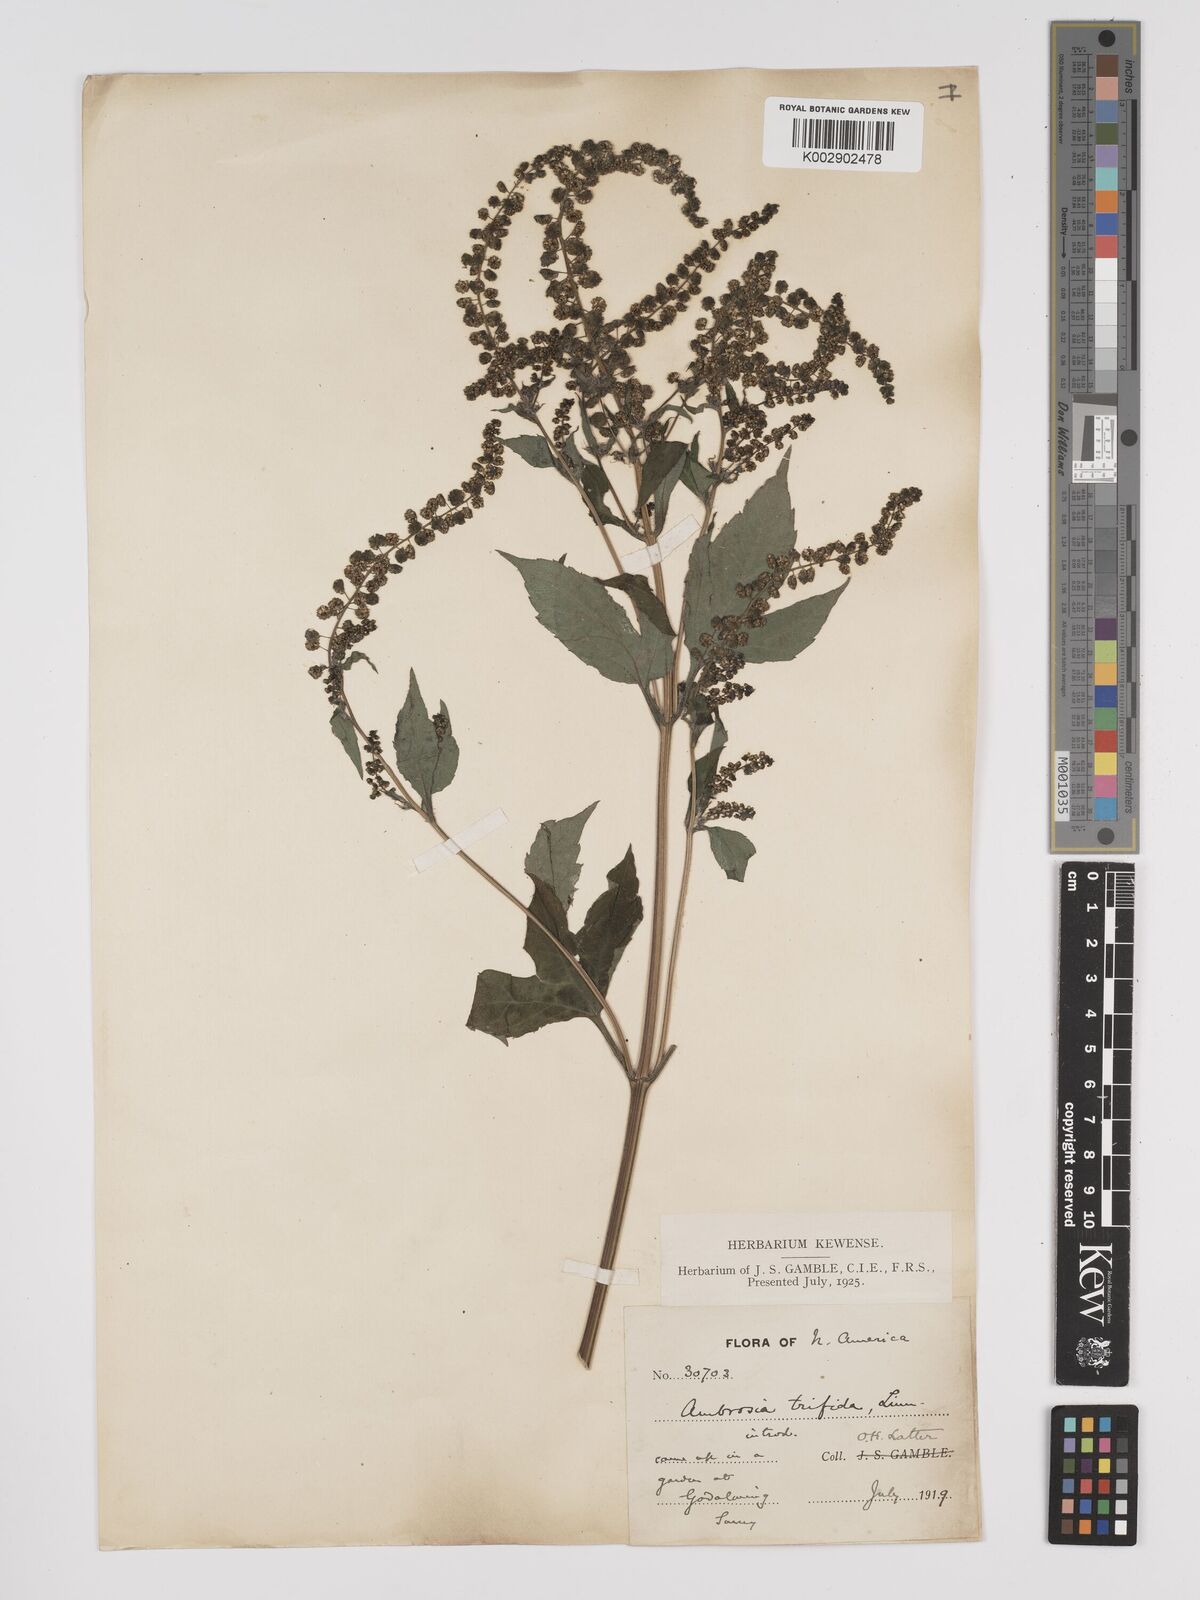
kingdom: Plantae
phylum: Tracheophyta
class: Magnoliopsida
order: Asterales
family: Asteraceae
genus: Ambrosia
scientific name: Ambrosia trifida
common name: Giant ragweed
